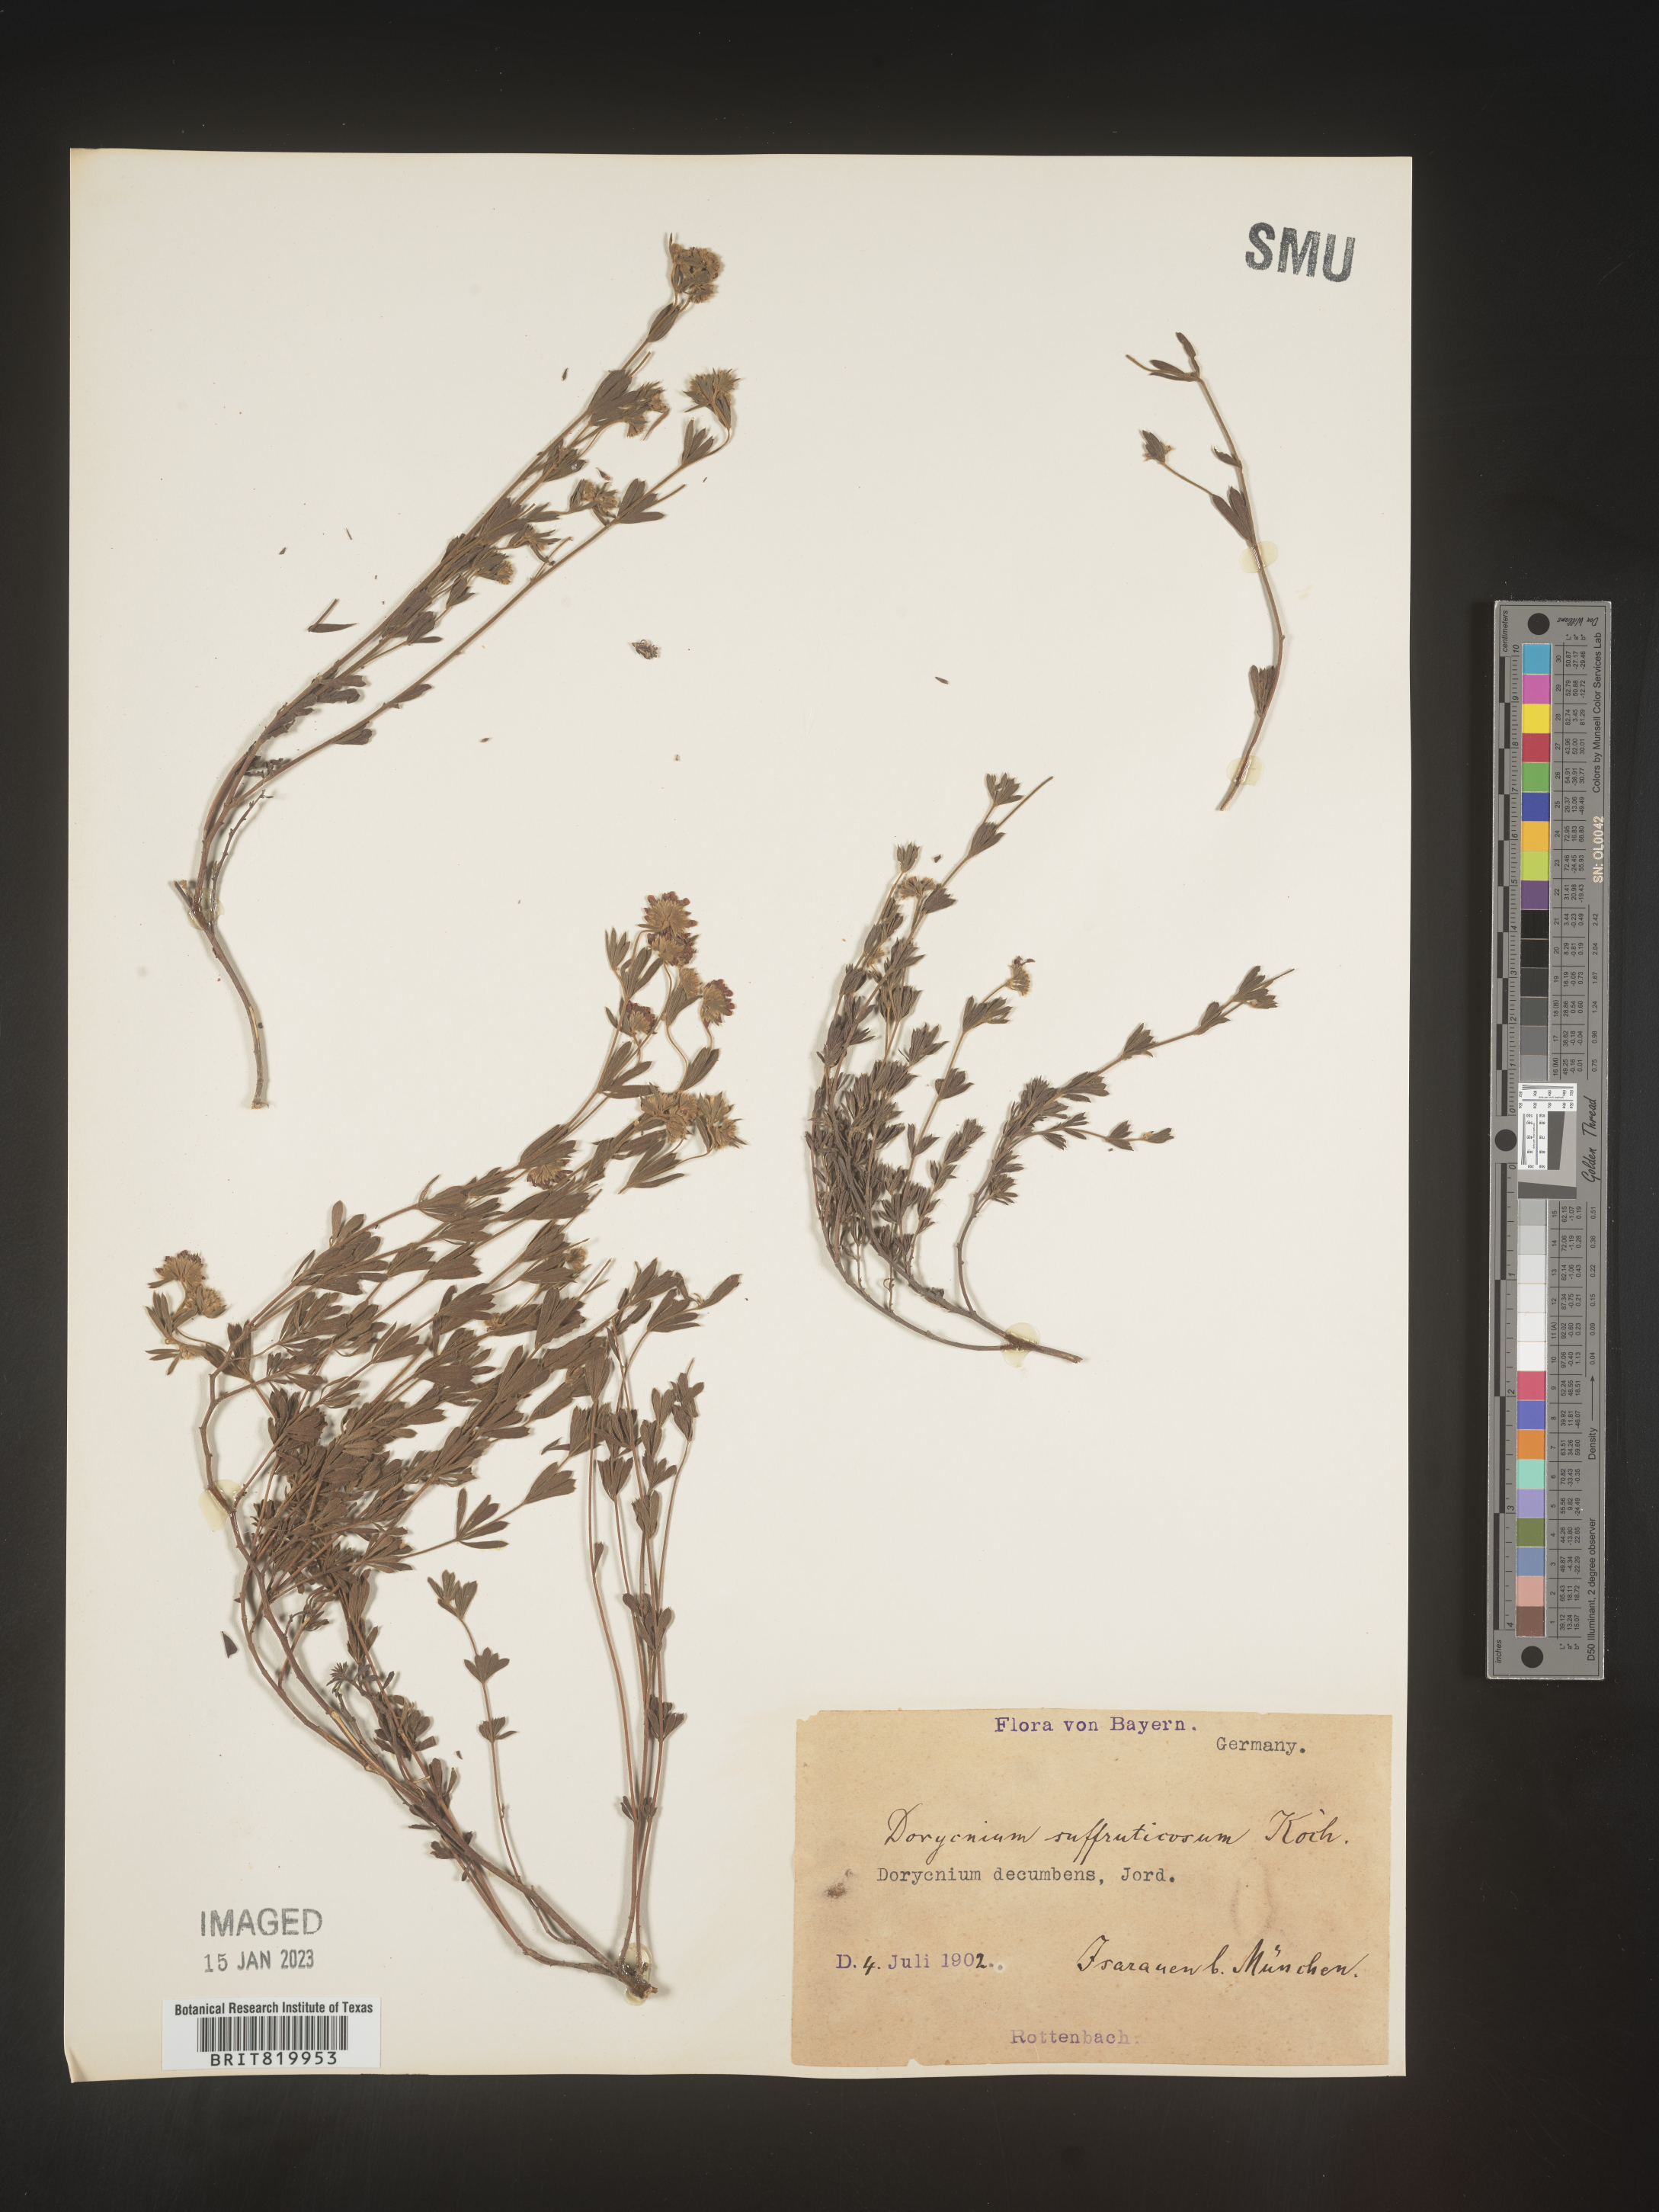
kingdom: Plantae
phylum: Tracheophyta
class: Magnoliopsida
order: Fabales
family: Fabaceae
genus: Lotus
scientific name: Lotus
